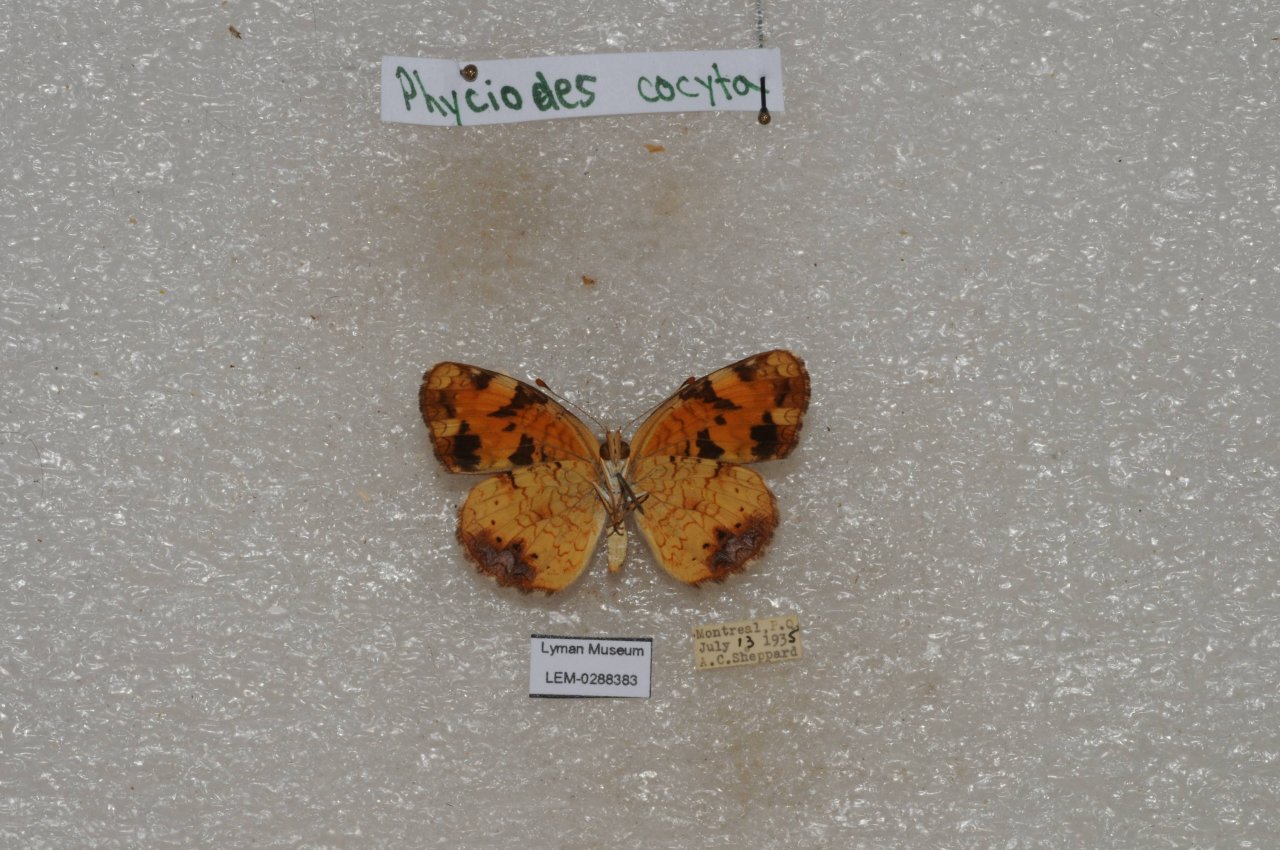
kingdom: Animalia
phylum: Arthropoda
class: Insecta
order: Lepidoptera
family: Nymphalidae
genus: Phyciodes
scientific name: Phyciodes tharos
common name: Northern Crescent
